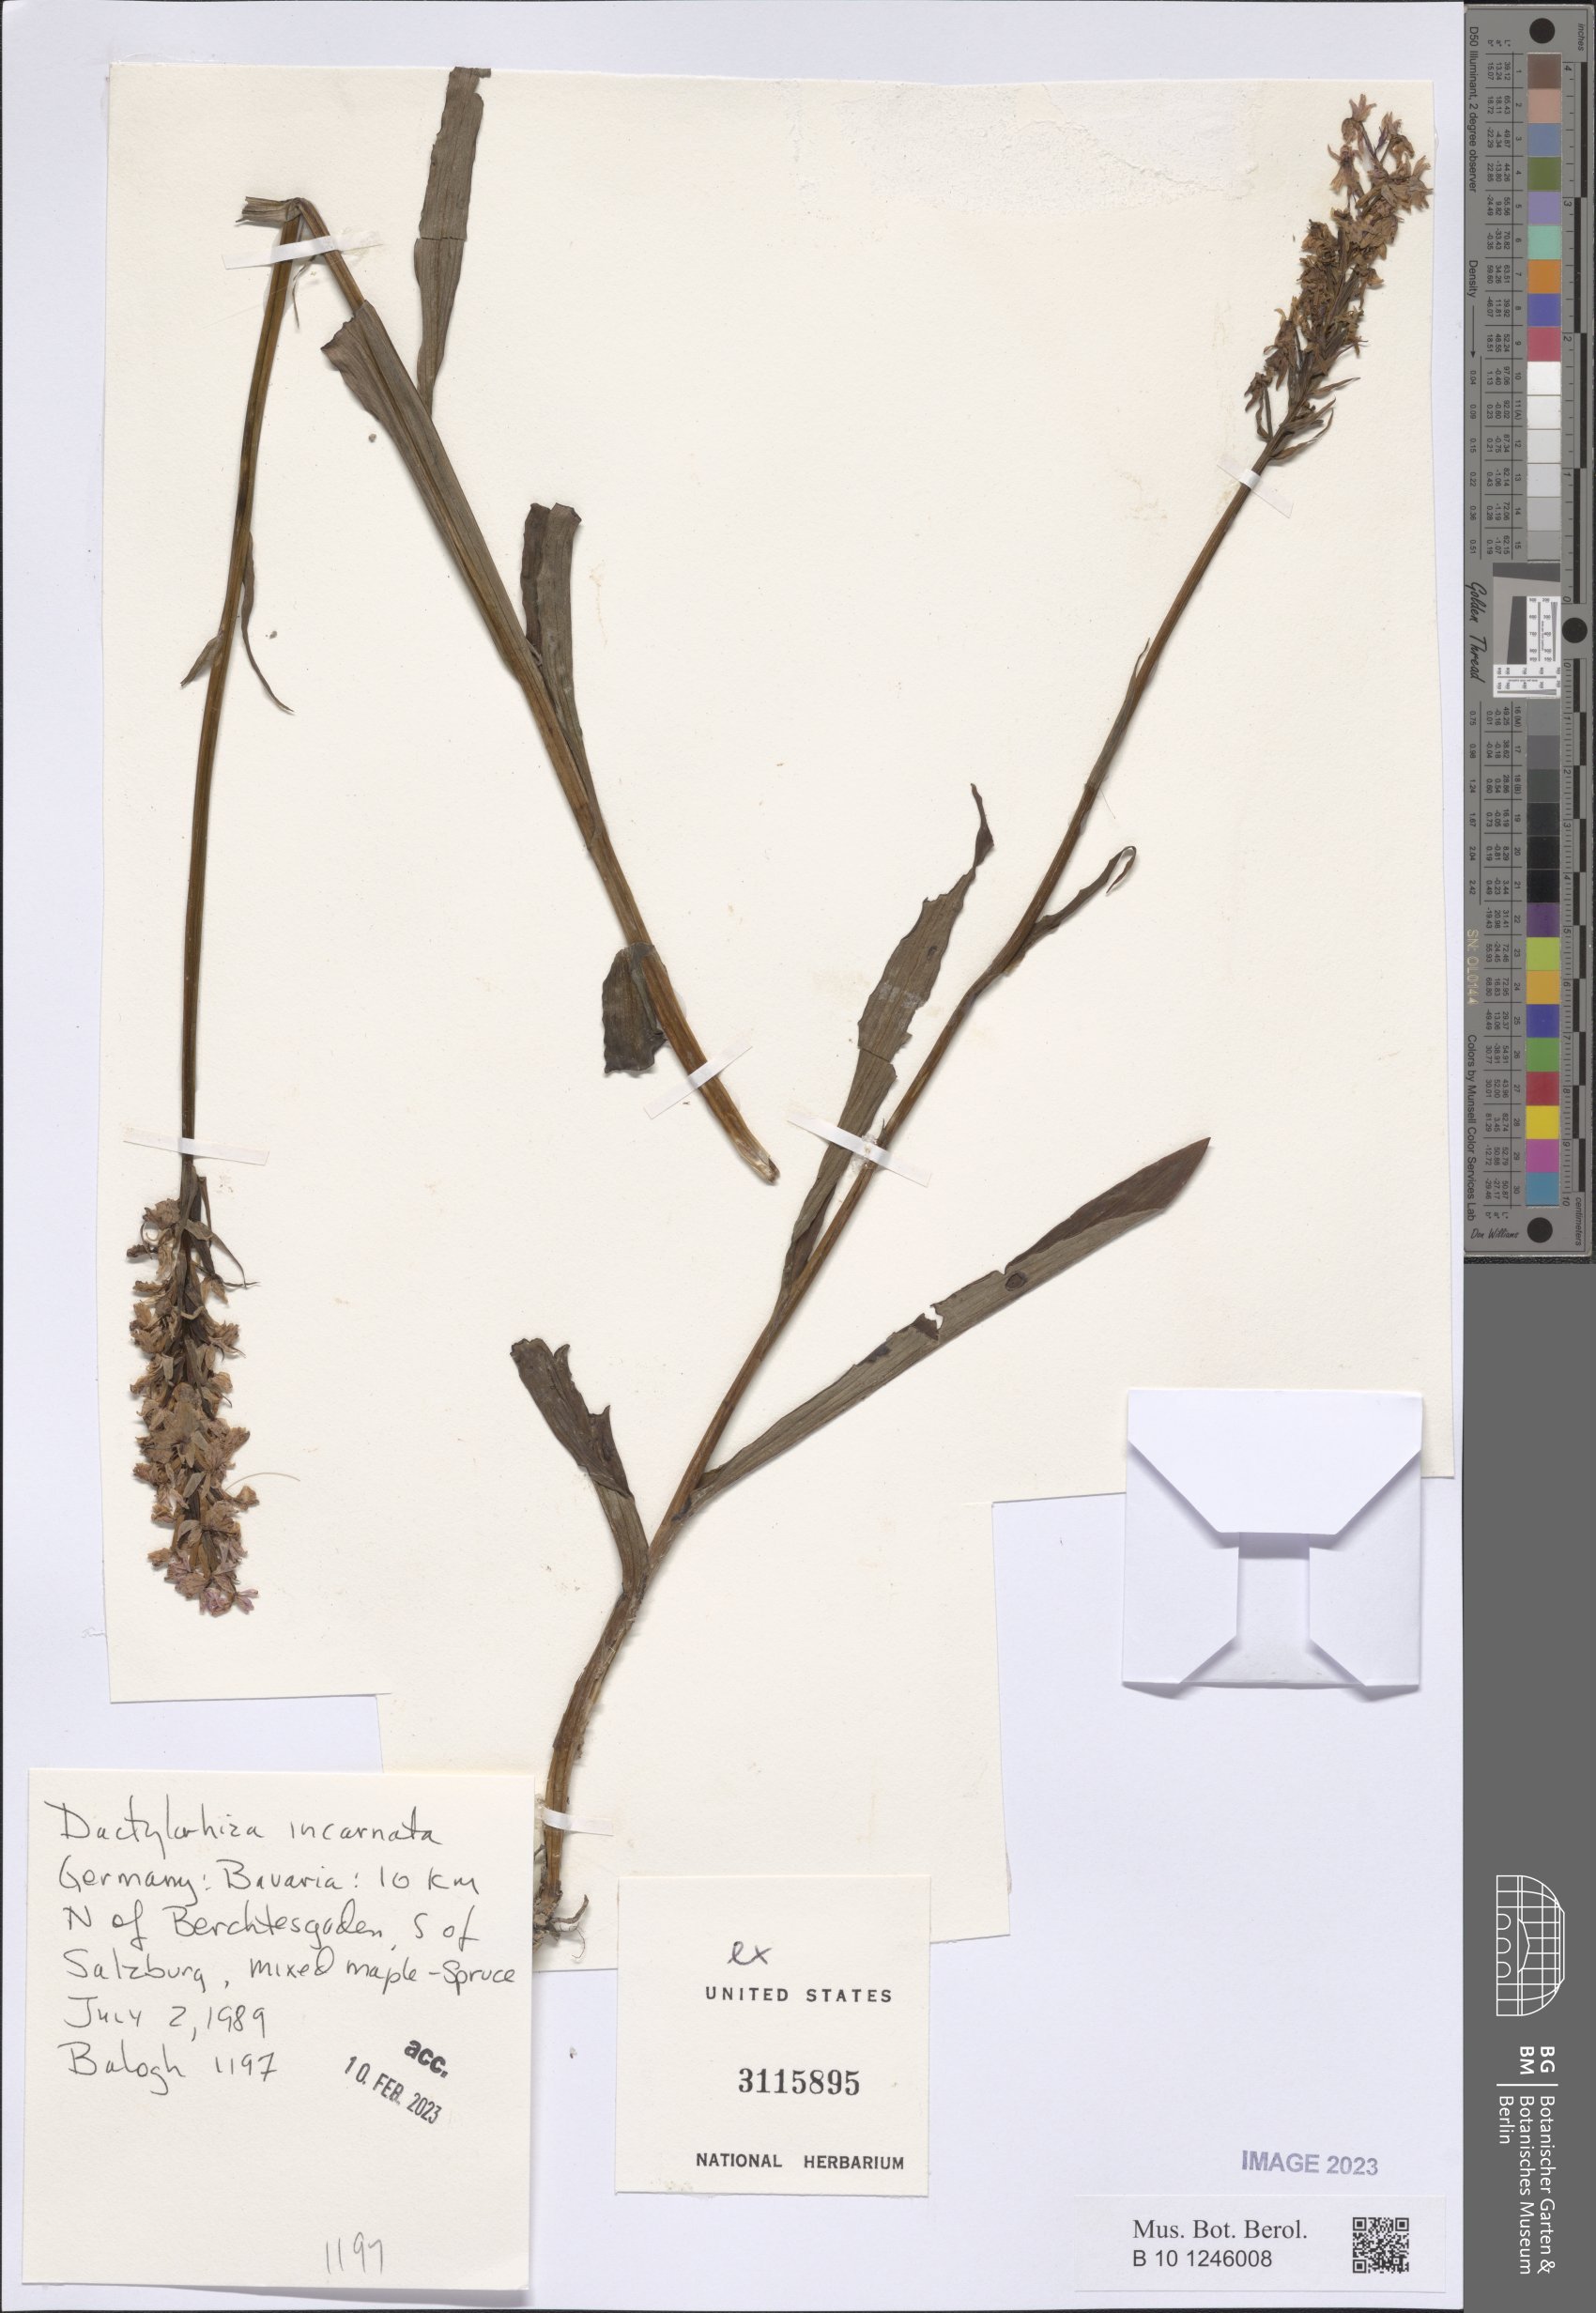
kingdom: Plantae
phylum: Tracheophyta
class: Liliopsida
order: Asparagales
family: Orchidaceae
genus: Dactylorhiza
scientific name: Dactylorhiza incarnata
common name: Early marsh-orchid
